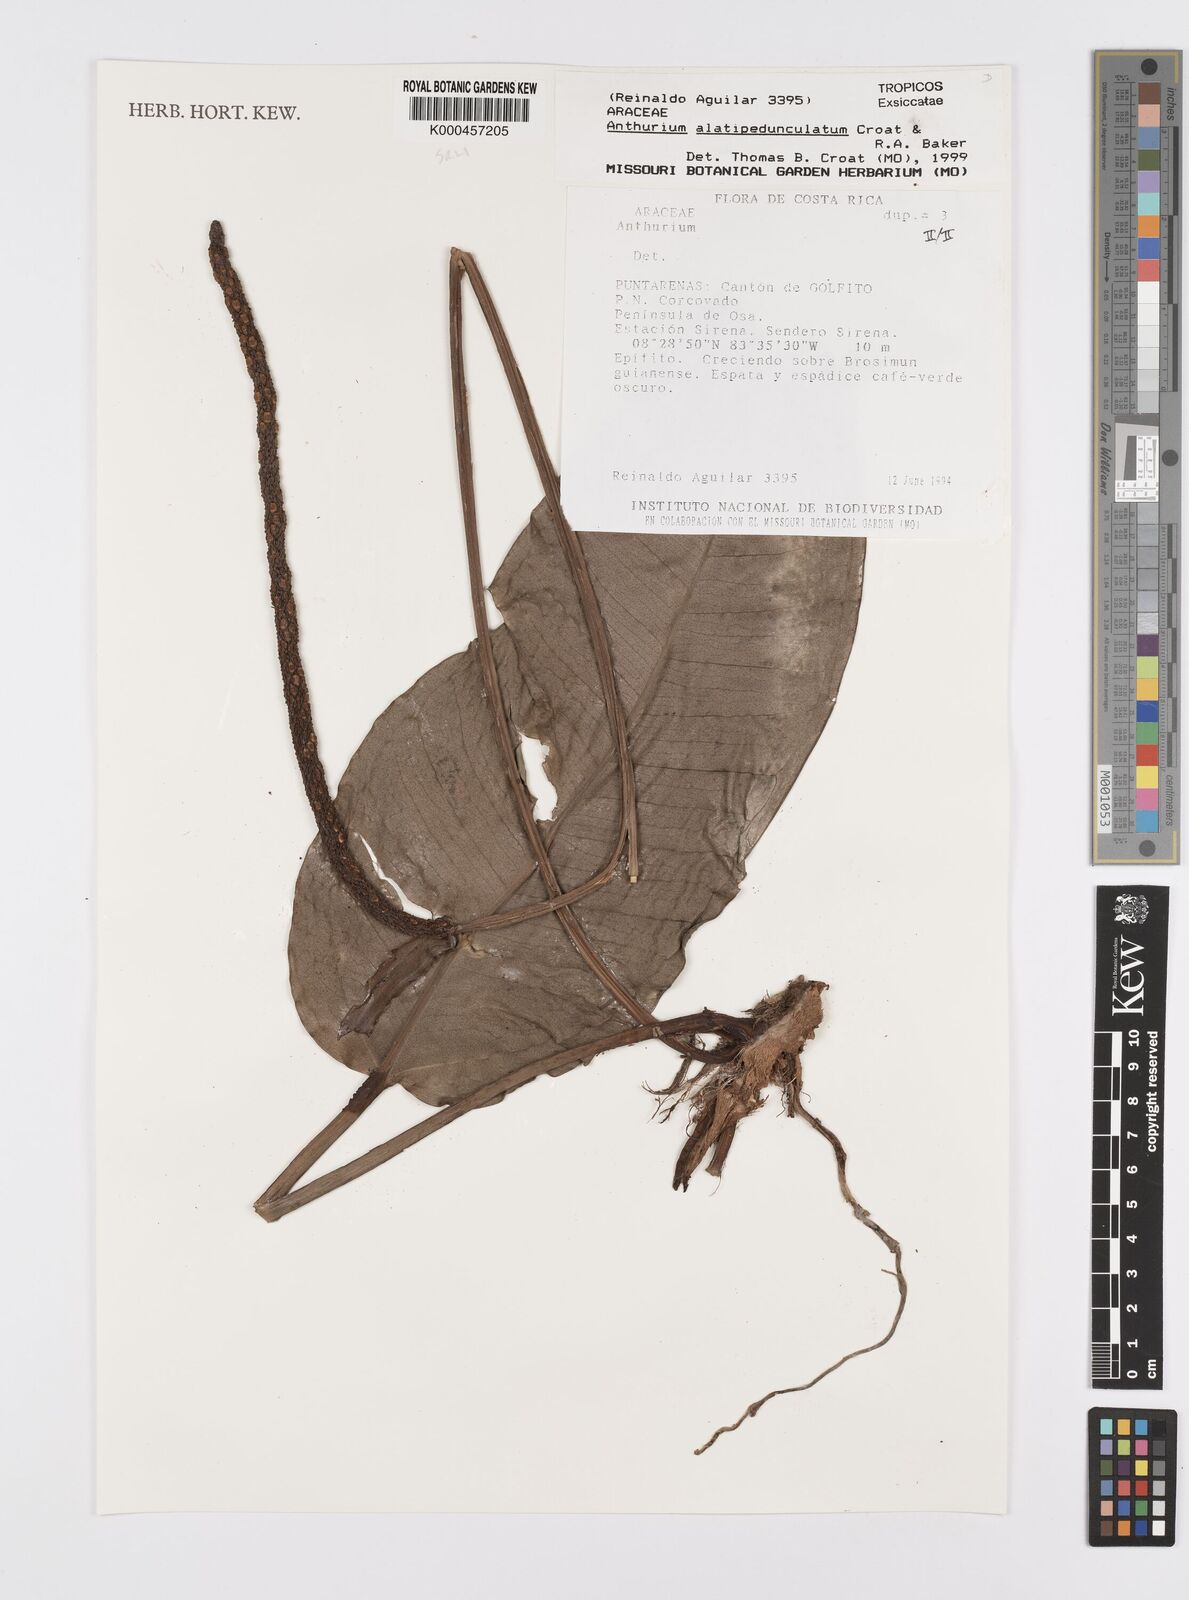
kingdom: Plantae
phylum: Tracheophyta
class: Liliopsida
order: Alismatales
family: Araceae
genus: Anthurium
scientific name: Anthurium alatipedunculatum
